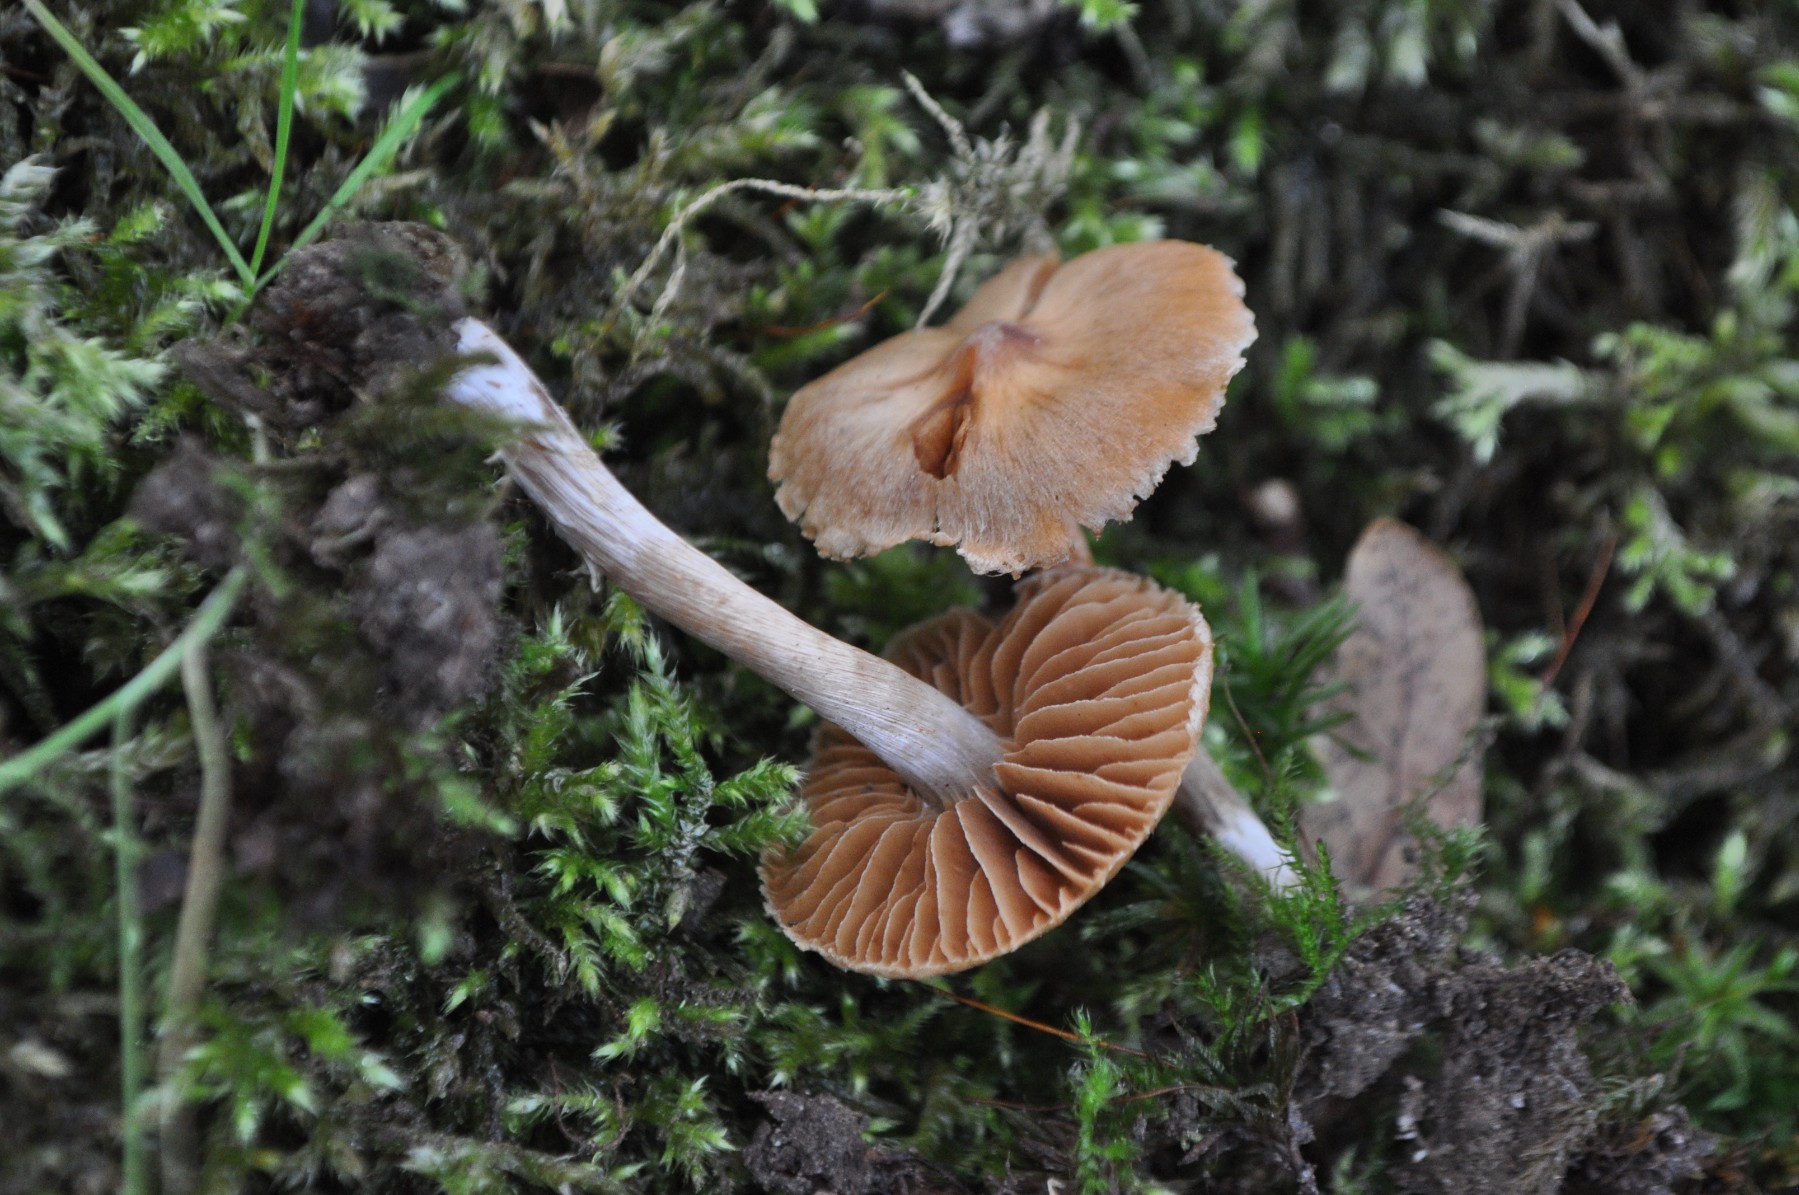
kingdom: Fungi
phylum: Basidiomycota
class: Agaricomycetes
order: Agaricales
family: Cortinariaceae
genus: Cortinarius
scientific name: Cortinarius
